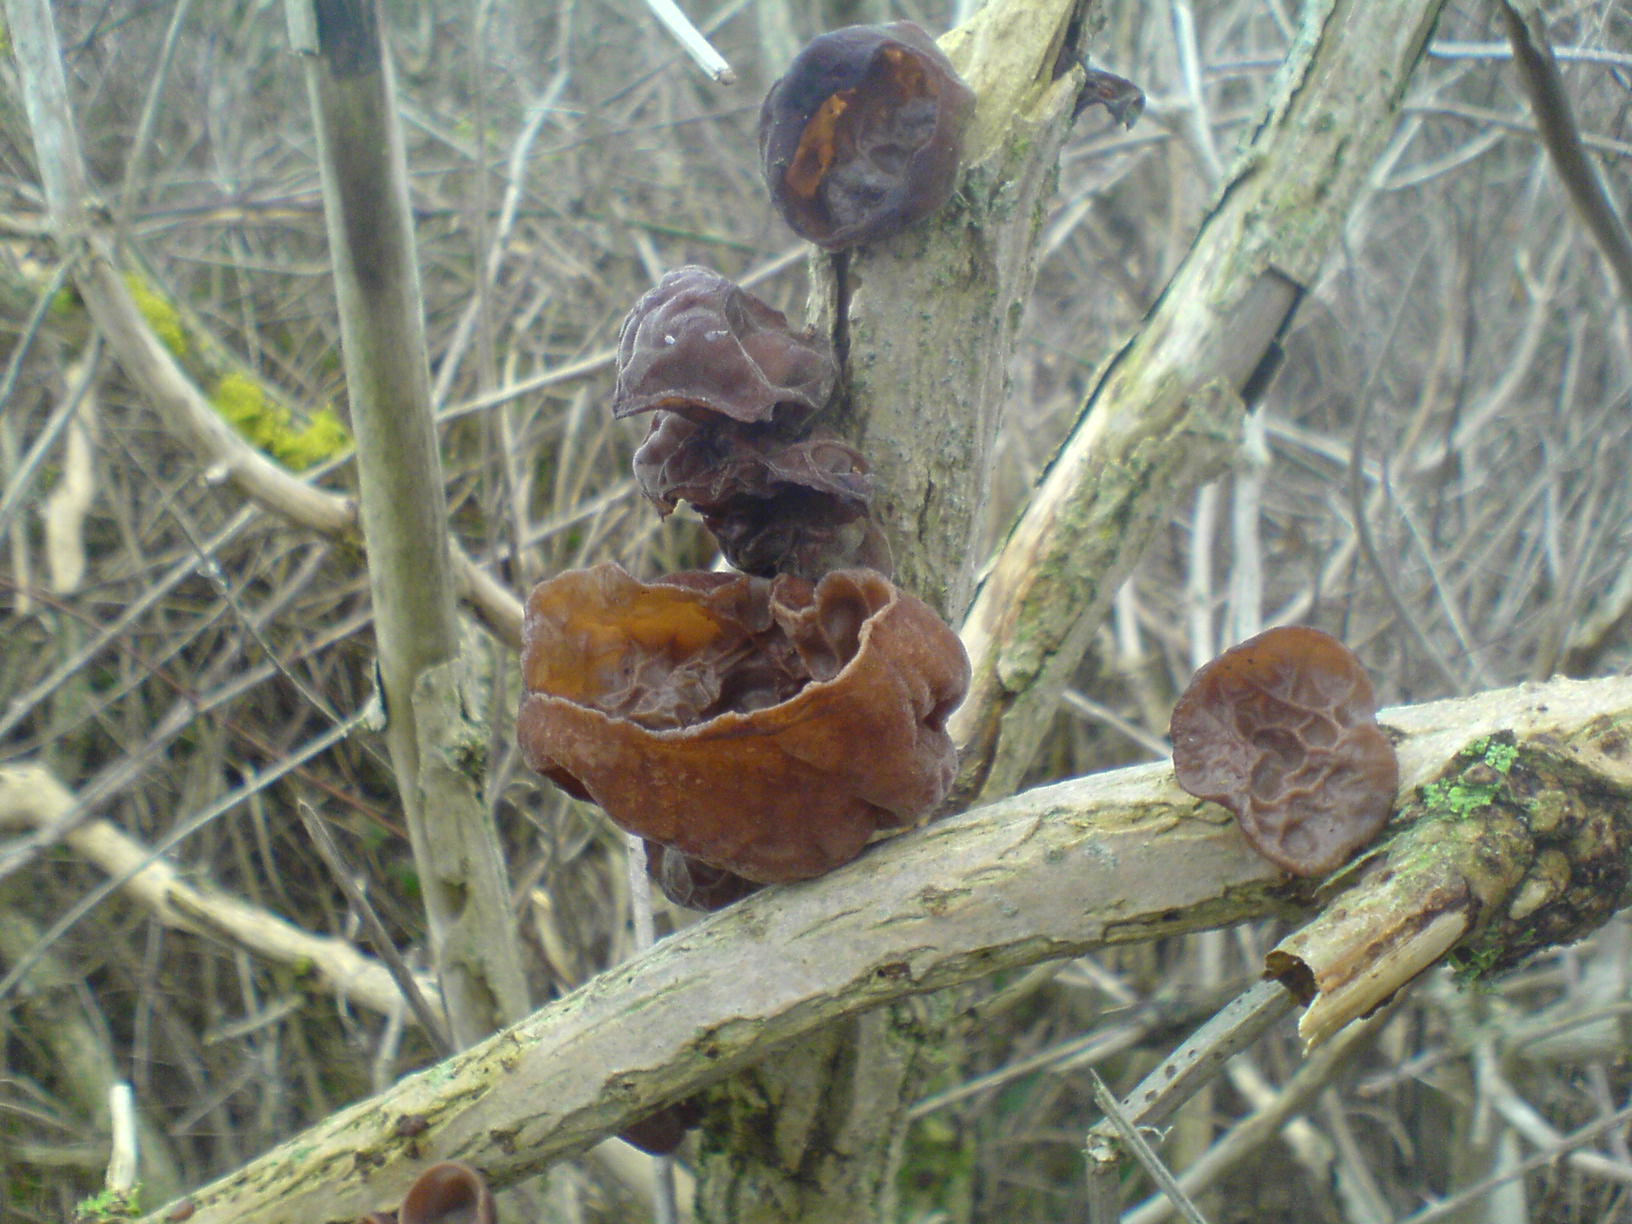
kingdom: Fungi
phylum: Basidiomycota
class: Agaricomycetes
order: Auriculariales
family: Auriculariaceae
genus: Auricularia
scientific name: Auricularia auricula-judae
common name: almindelig judasøre
